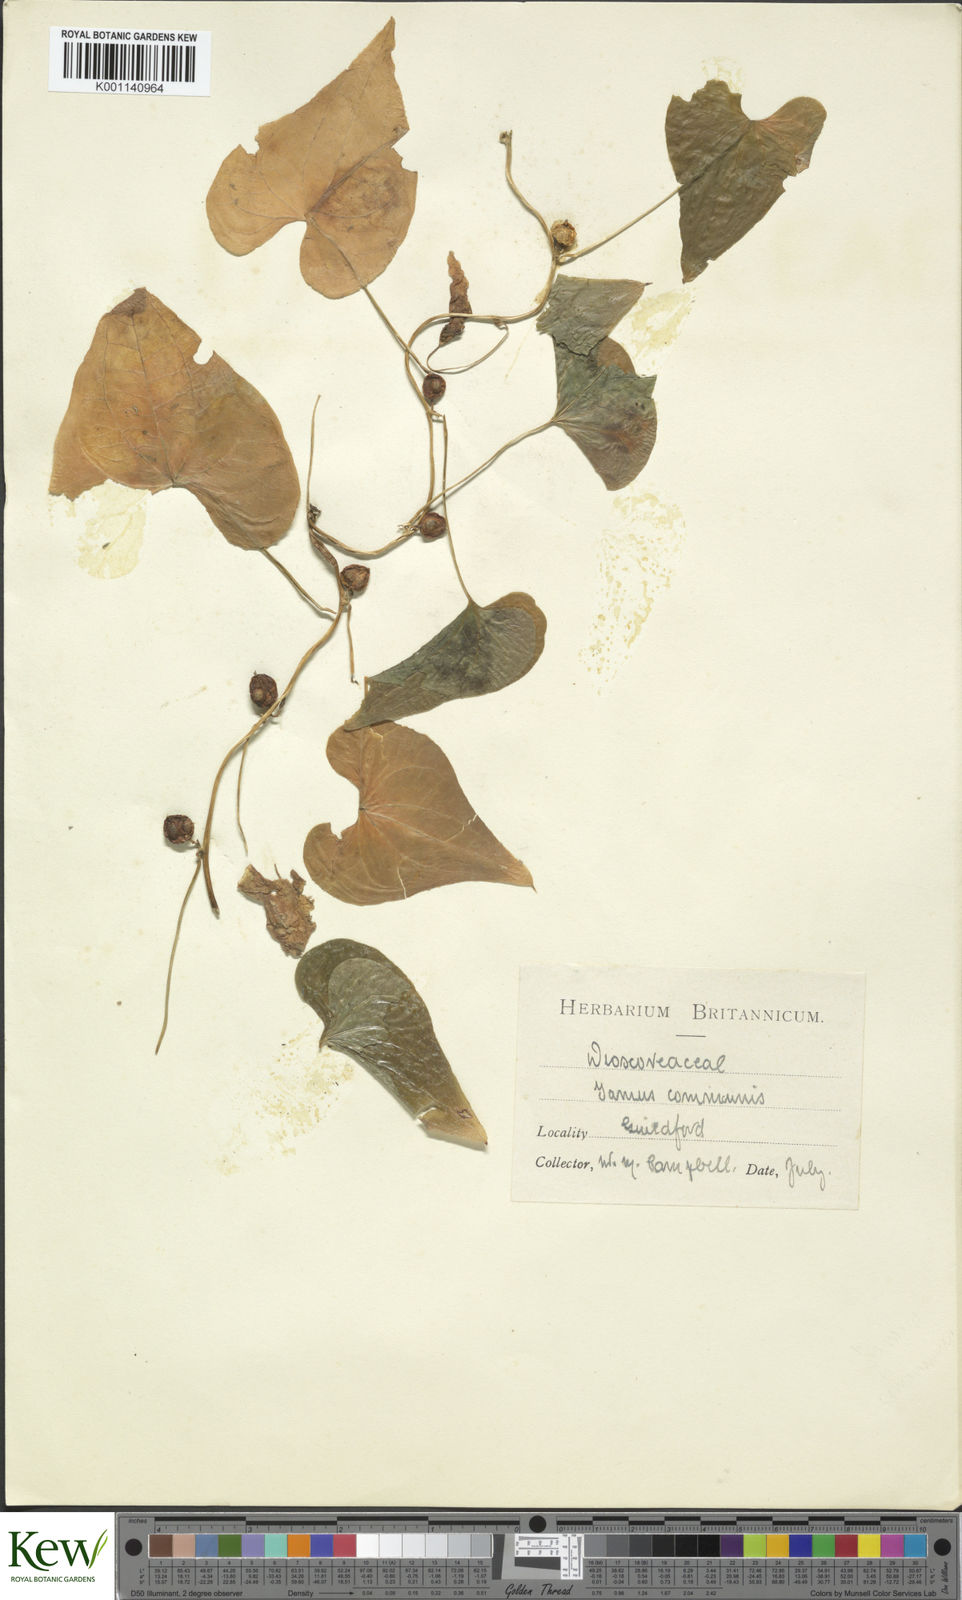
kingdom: Plantae
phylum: Tracheophyta
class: Liliopsida
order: Dioscoreales
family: Dioscoreaceae
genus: Dioscorea
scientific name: Dioscorea communis
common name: Black-bindweed
